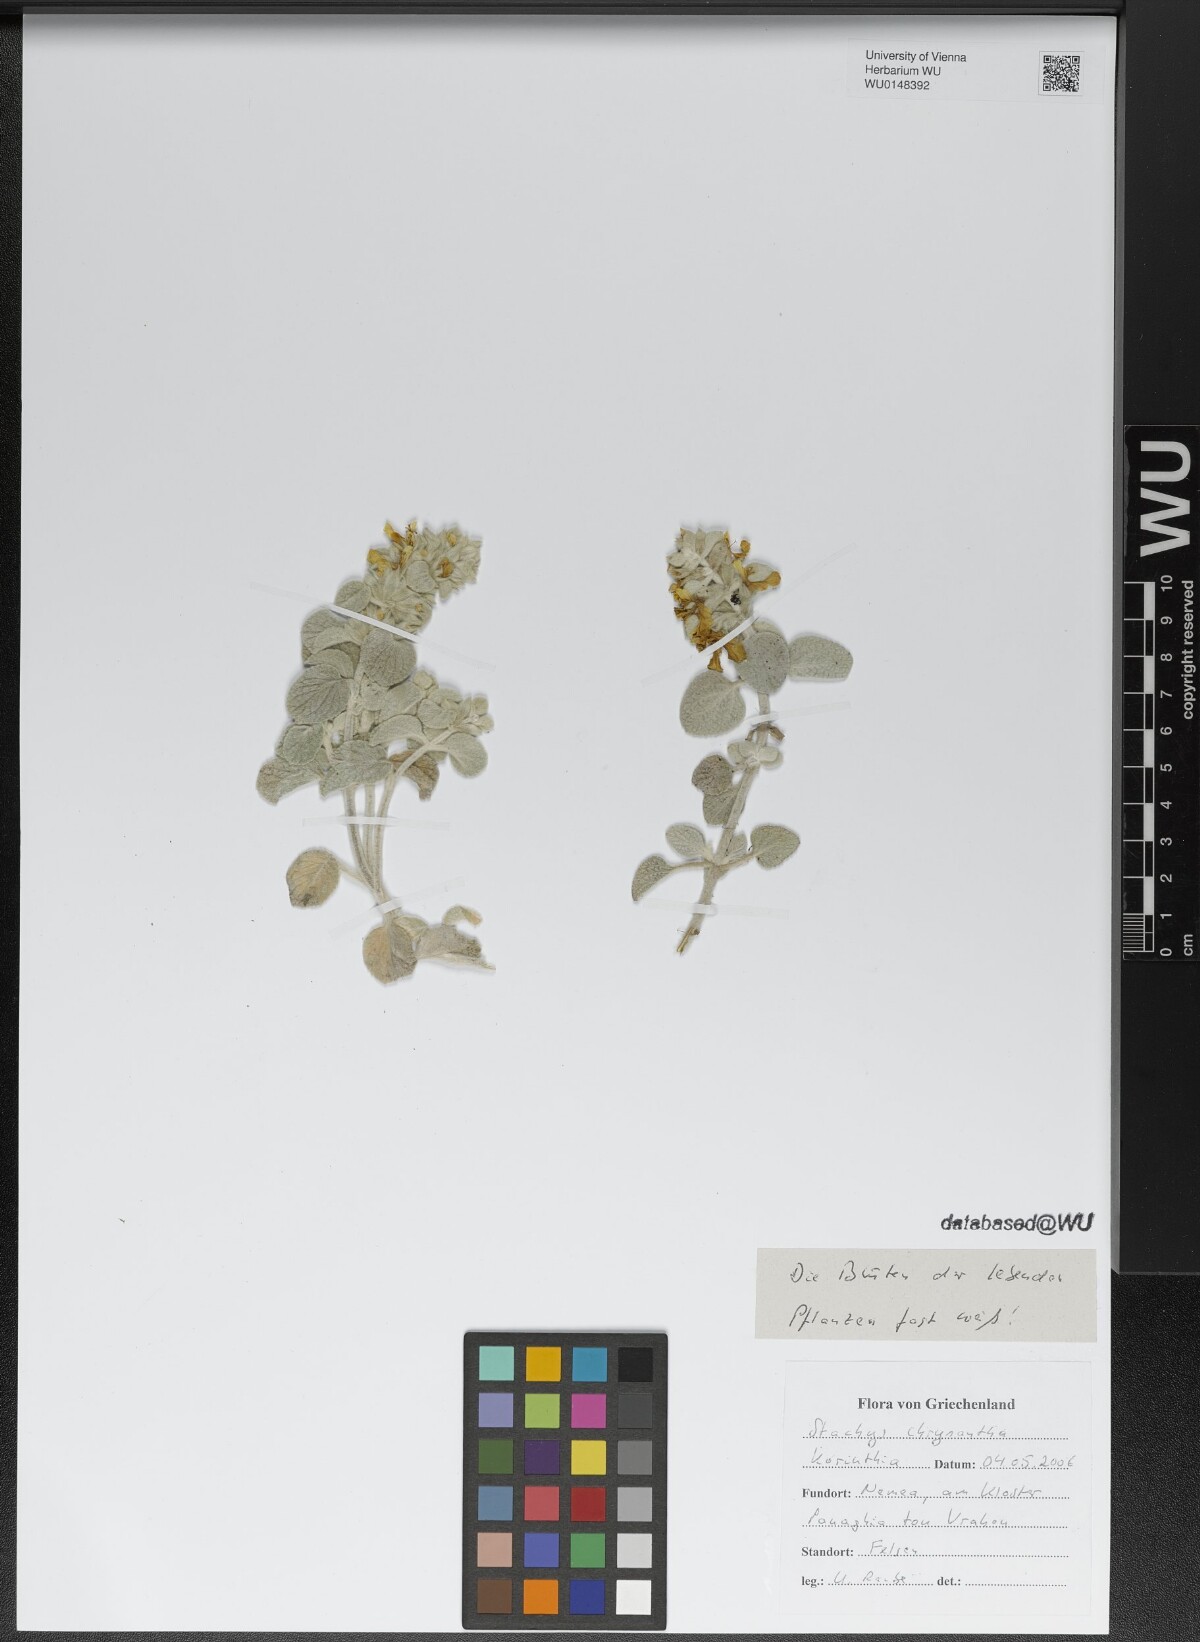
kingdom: Plantae
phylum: Tracheophyta
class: Magnoliopsida
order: Lamiales
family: Lamiaceae
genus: Stachys
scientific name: Stachys chrysantha
